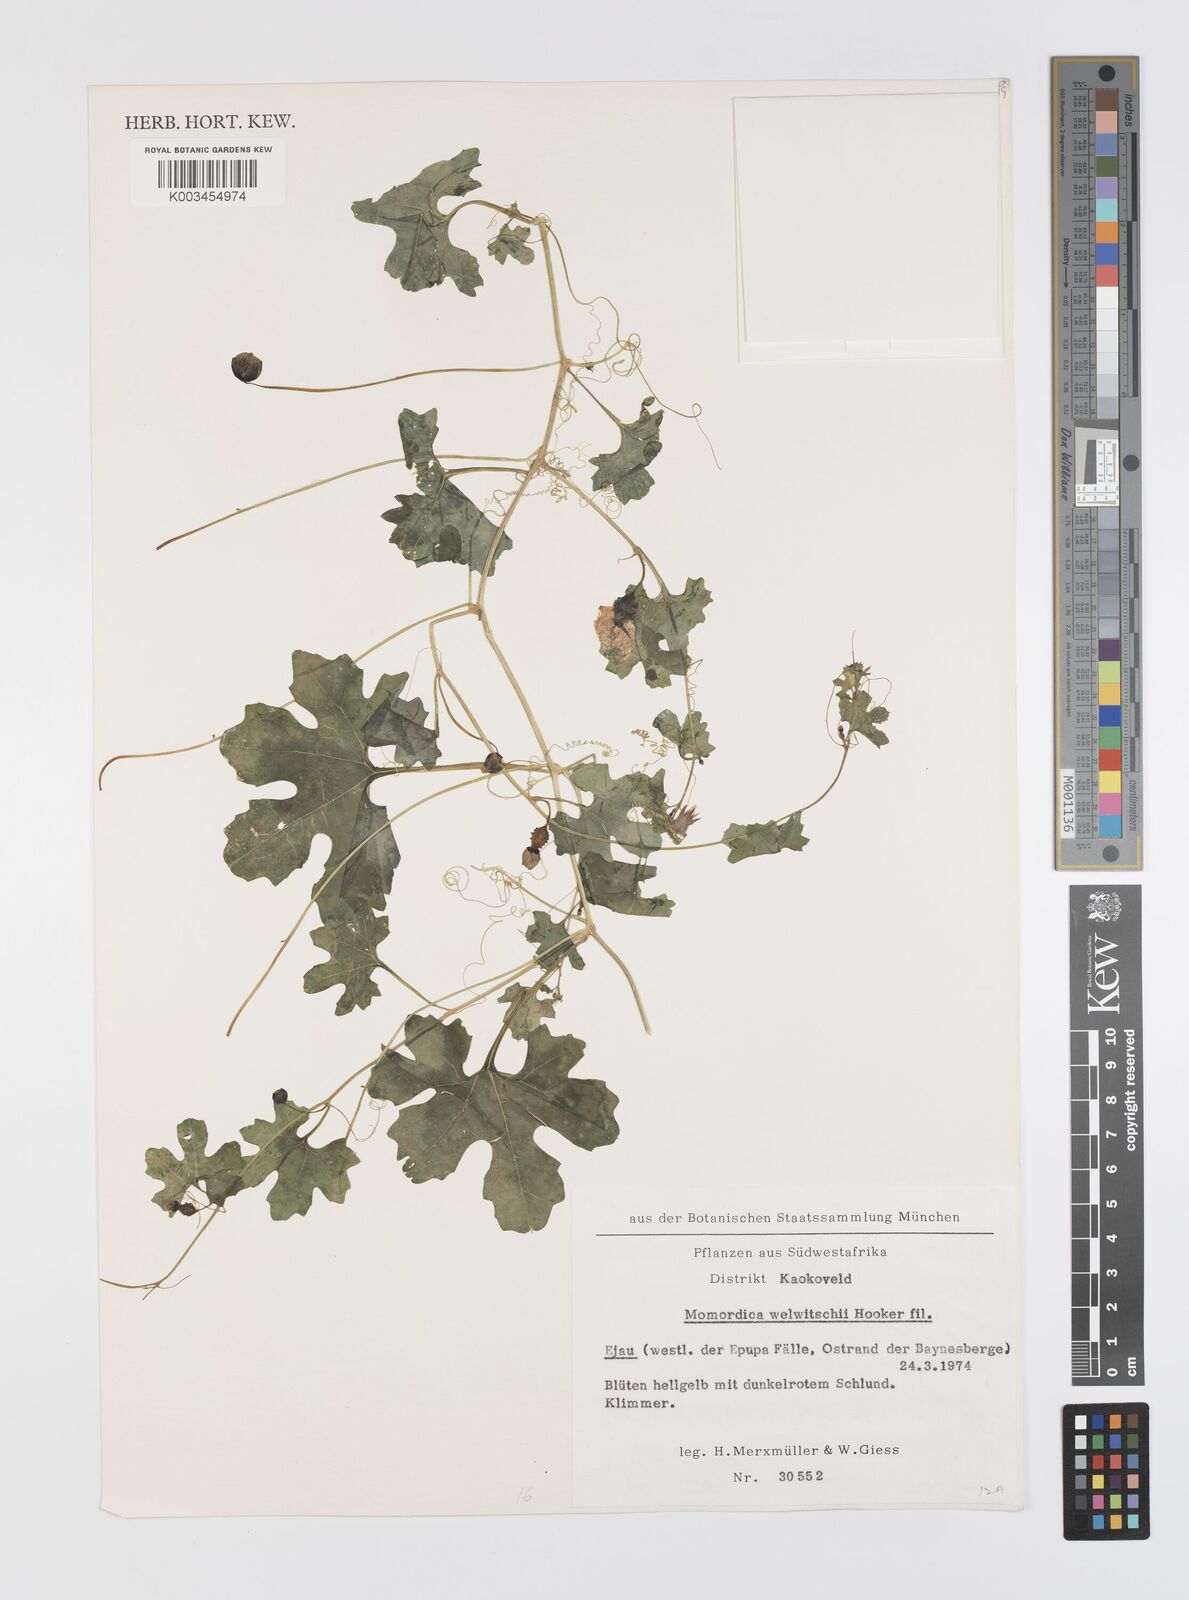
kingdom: Plantae
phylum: Tracheophyta
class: Magnoliopsida
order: Cucurbitales
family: Cucurbitaceae
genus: Momordica
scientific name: Momordica welwitschii
